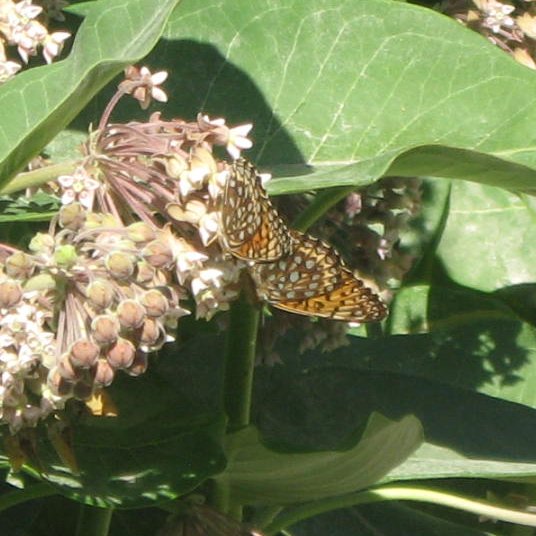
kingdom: Animalia
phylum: Arthropoda
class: Insecta
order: Lepidoptera
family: Nymphalidae
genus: Speyeria
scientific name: Speyeria atlantis
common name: Atlantis Fritillary
